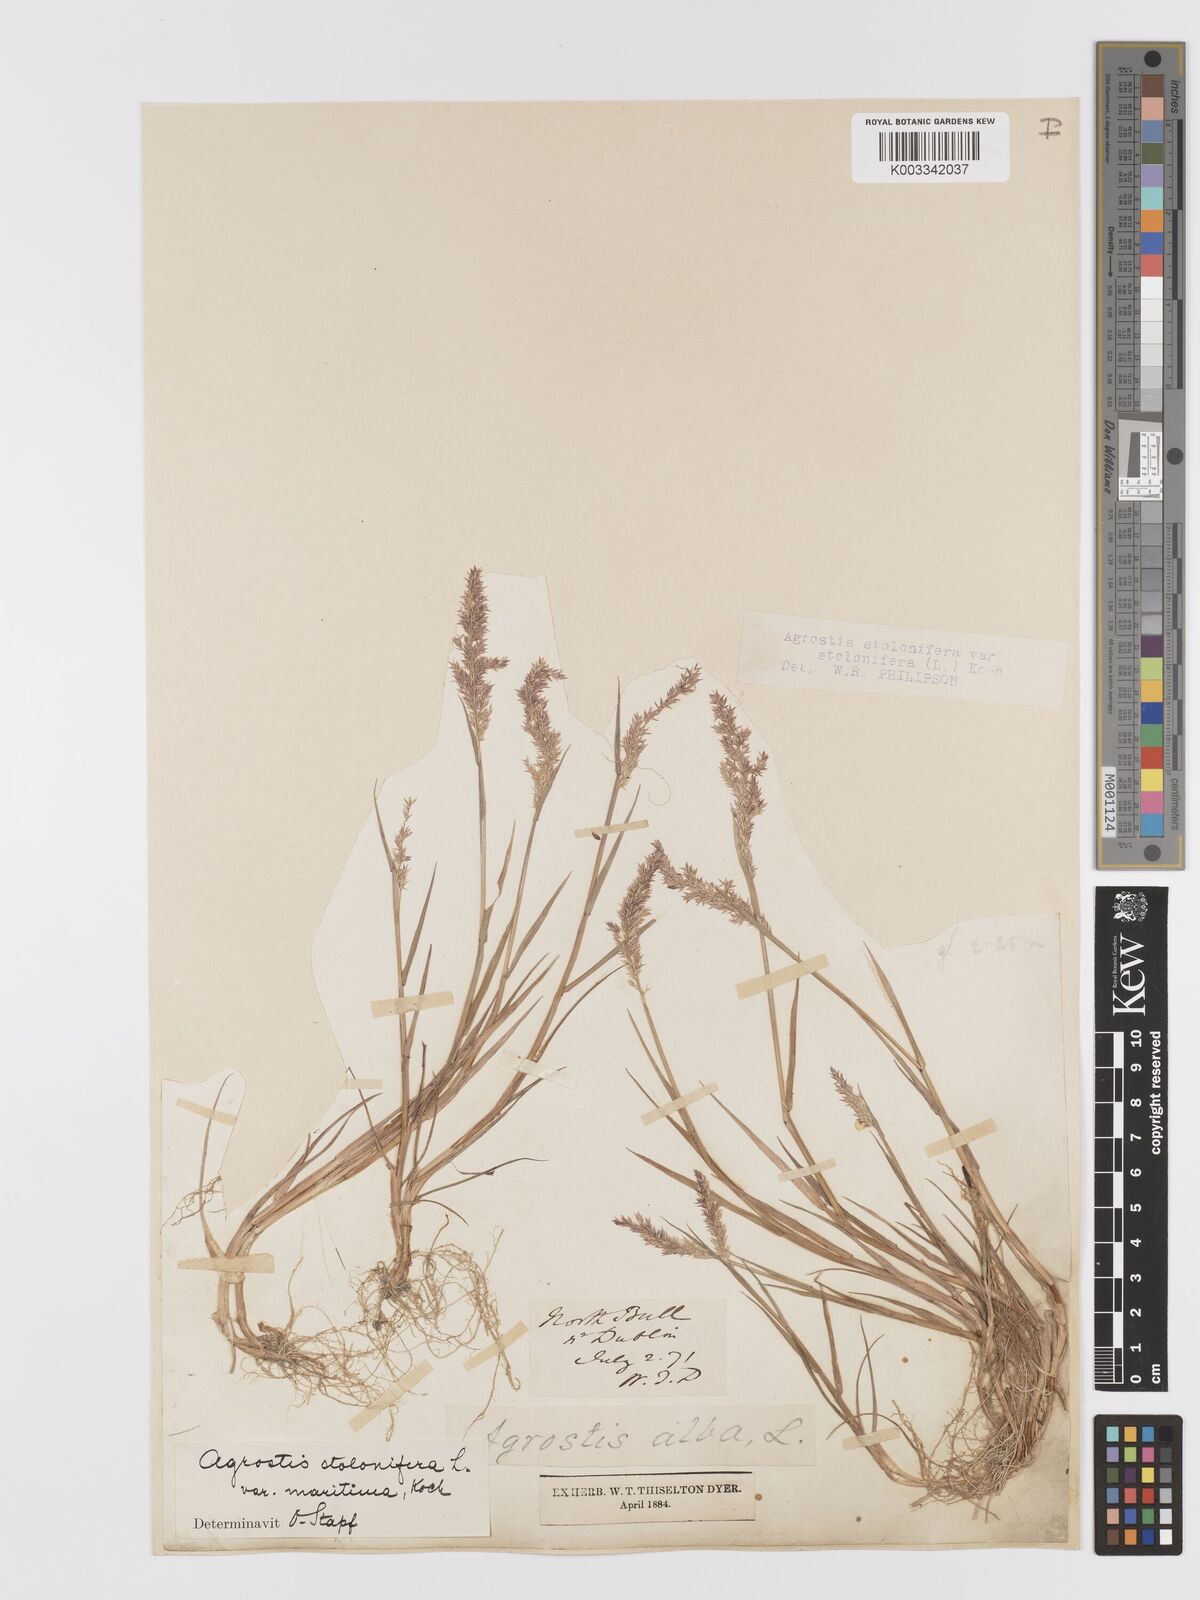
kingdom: Plantae
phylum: Tracheophyta
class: Liliopsida
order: Poales
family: Poaceae
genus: Agrostis
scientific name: Agrostis stolonifera
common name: Creeping bentgrass
